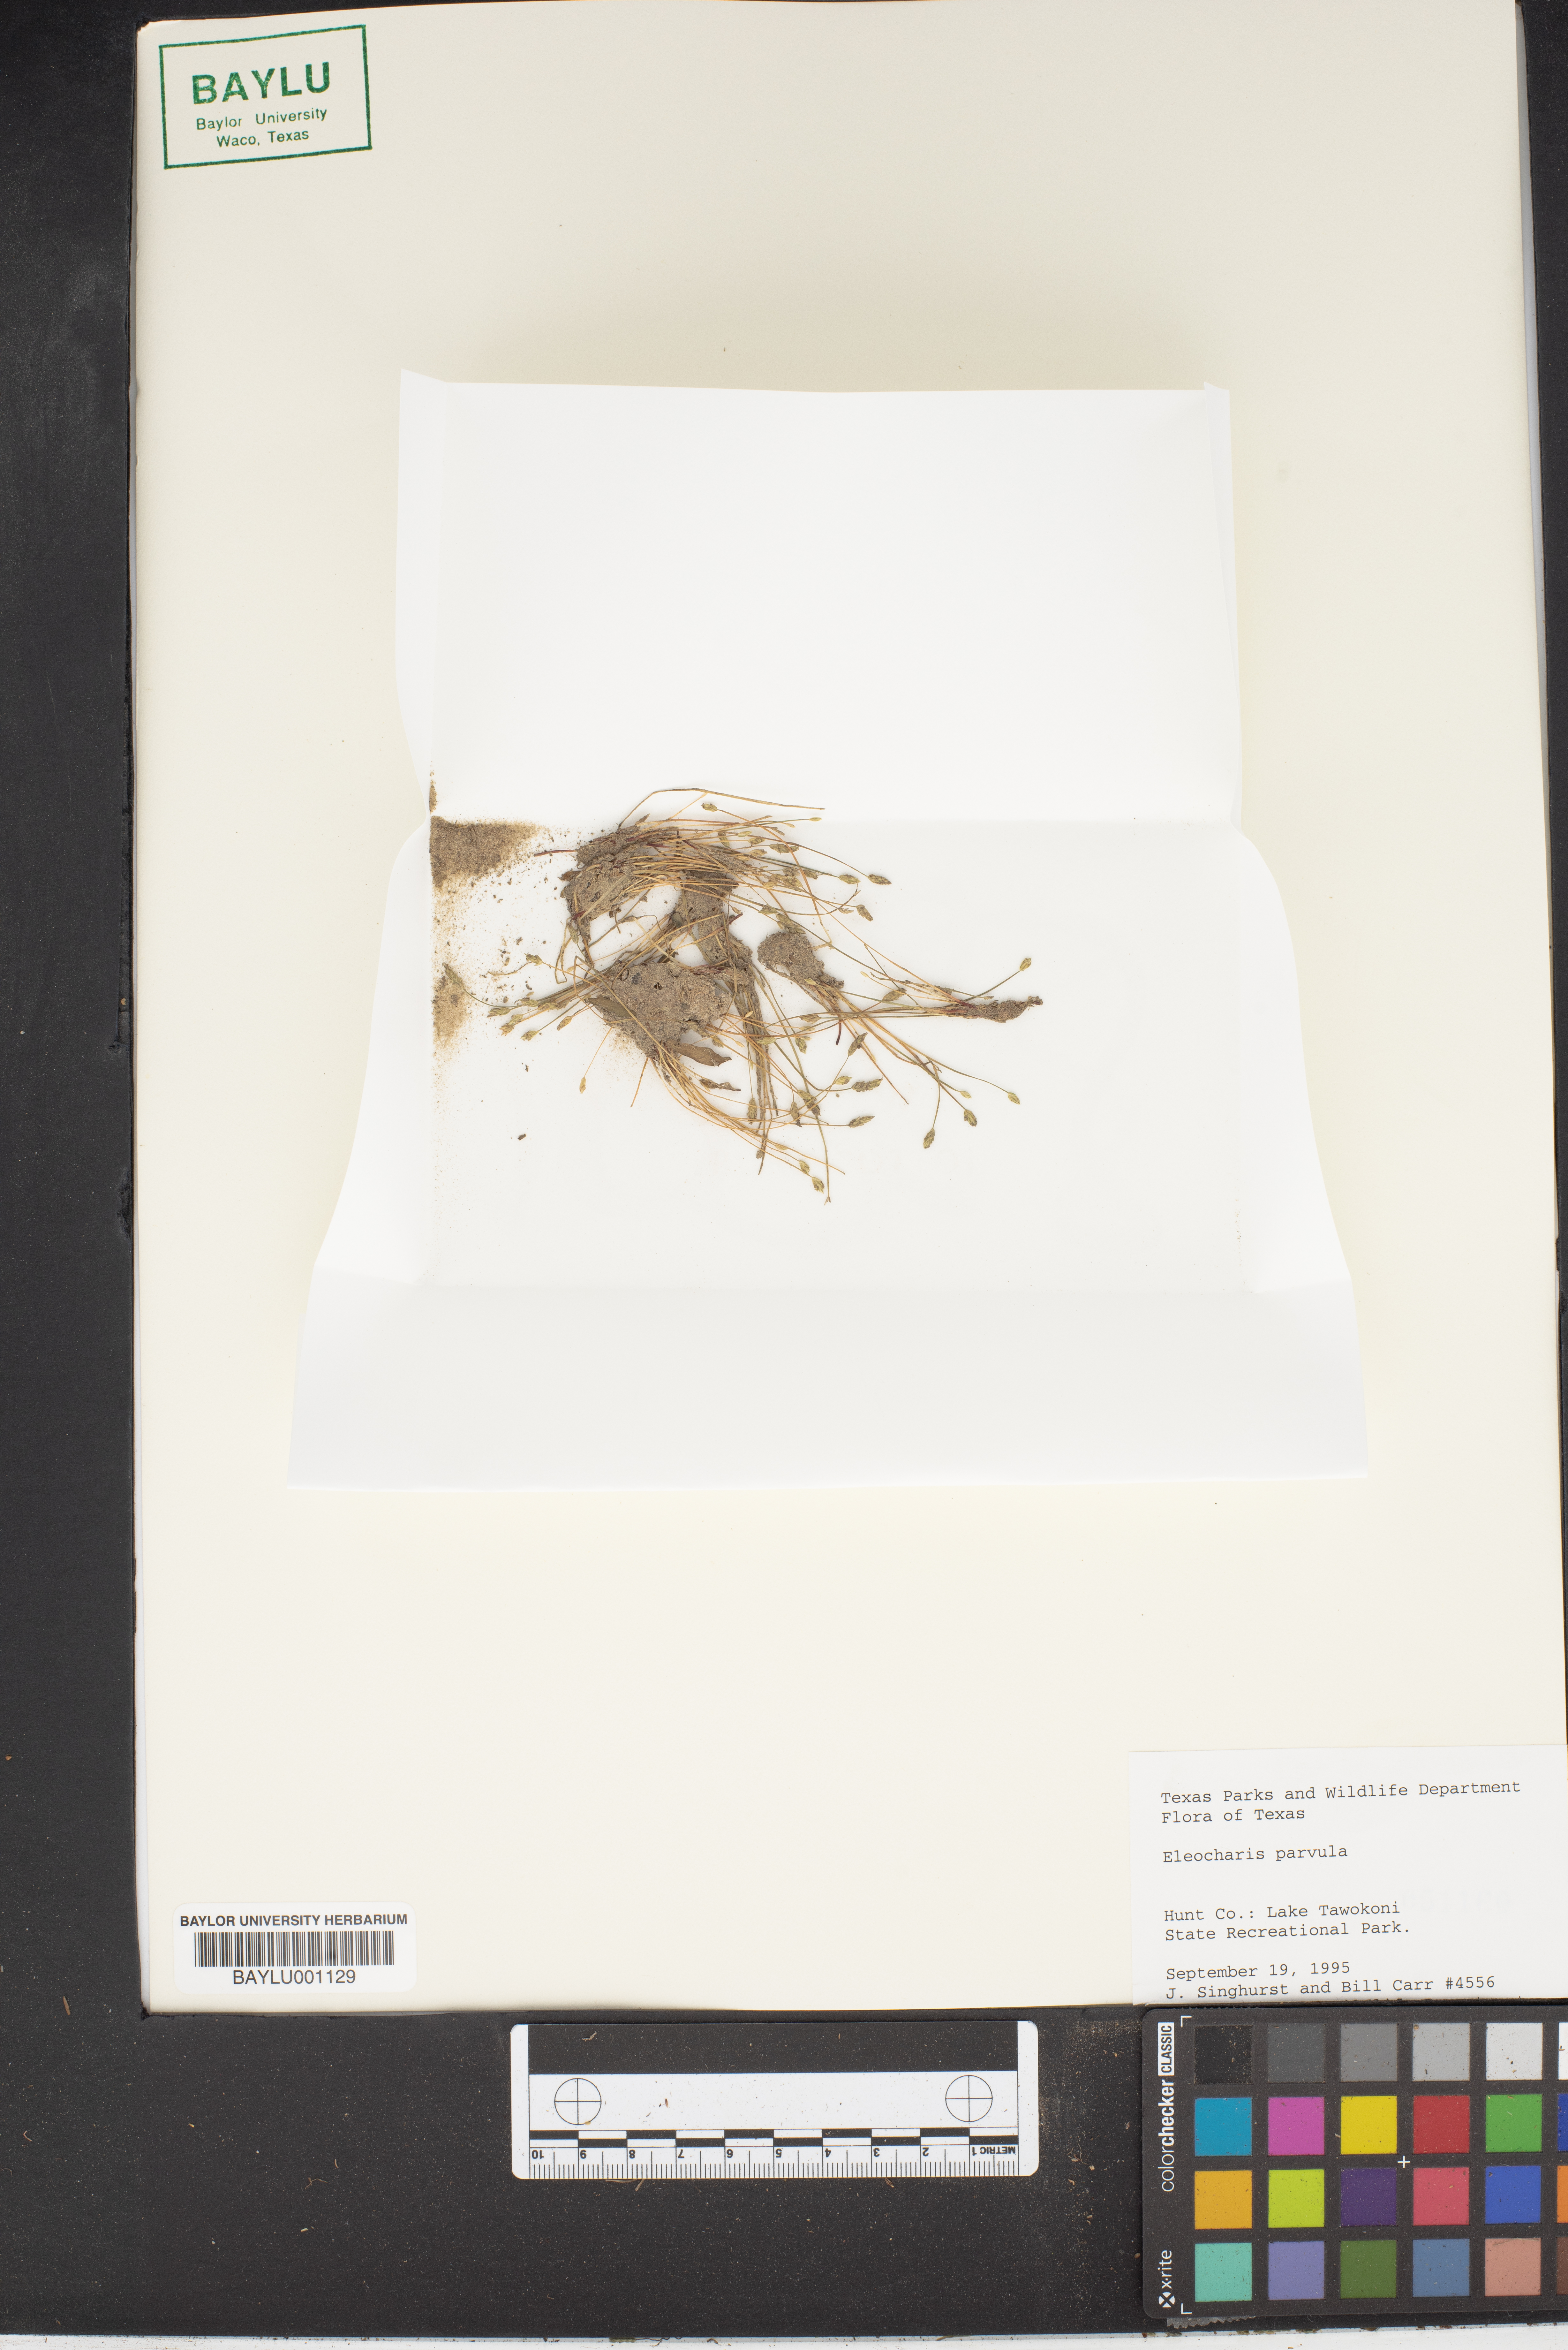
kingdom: Plantae
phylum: Tracheophyta
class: Liliopsida
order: Poales
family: Cyperaceae
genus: Eleocharis
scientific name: Eleocharis parvula
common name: Dwarf spike-rush
